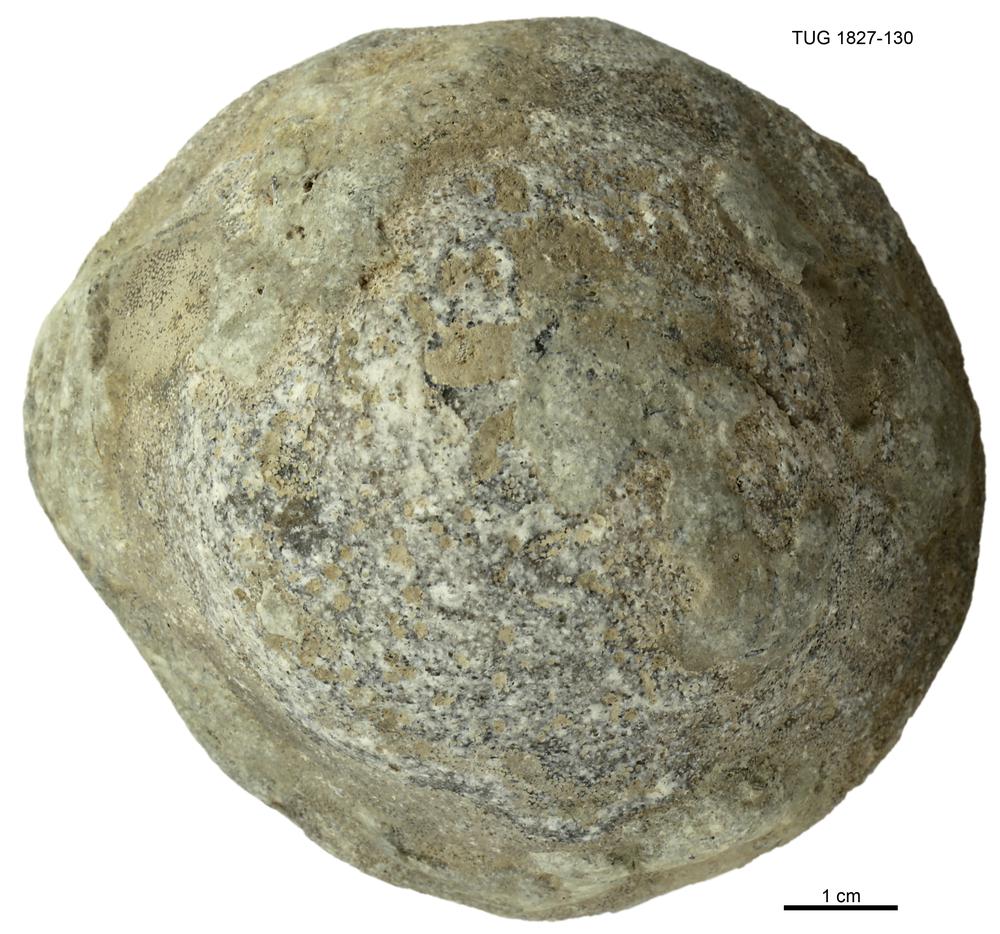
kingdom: Animalia
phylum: Bryozoa
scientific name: Bryozoa
